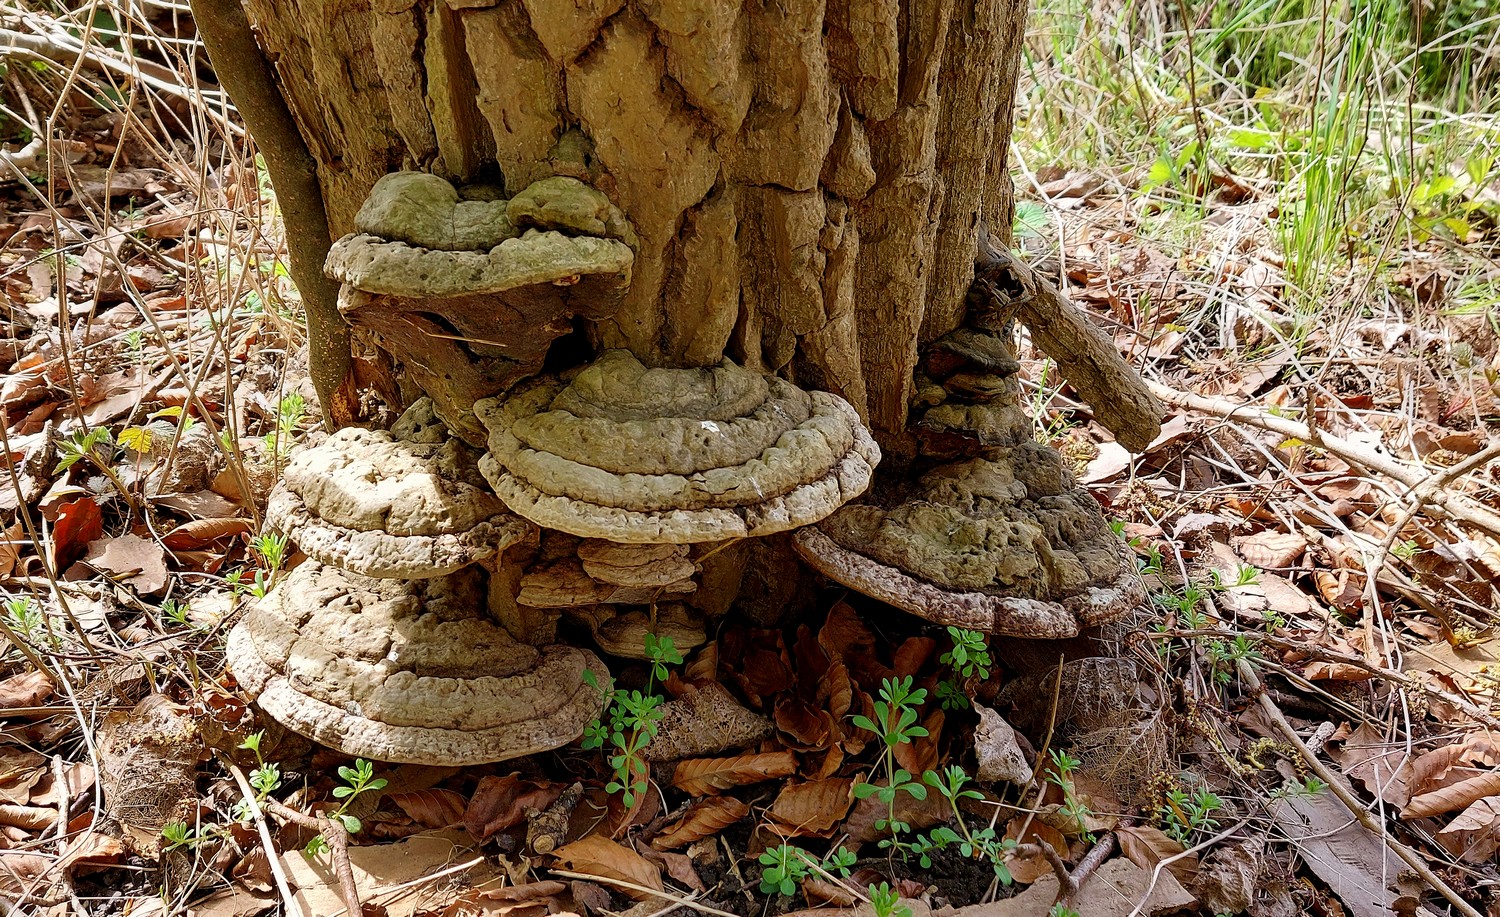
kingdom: Fungi
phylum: Basidiomycota
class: Agaricomycetes
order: Polyporales
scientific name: Polyporales
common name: poresvampordenen
